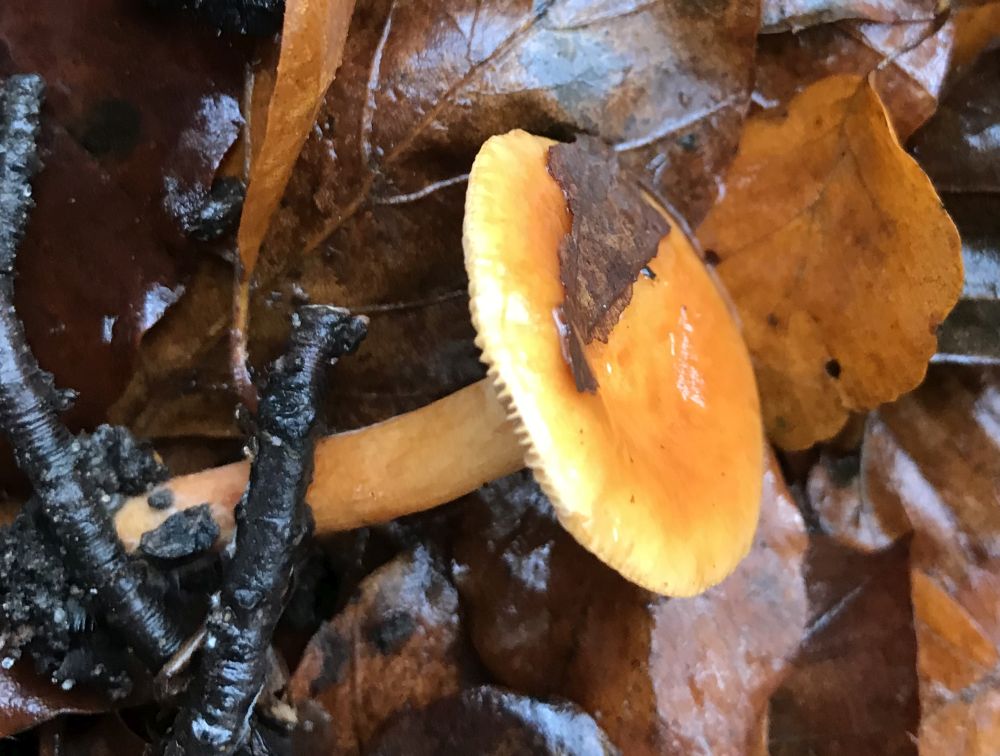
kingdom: Fungi
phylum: Basidiomycota
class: Agaricomycetes
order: Russulales
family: Russulaceae
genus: Lactarius
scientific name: Lactarius aurantiacus
